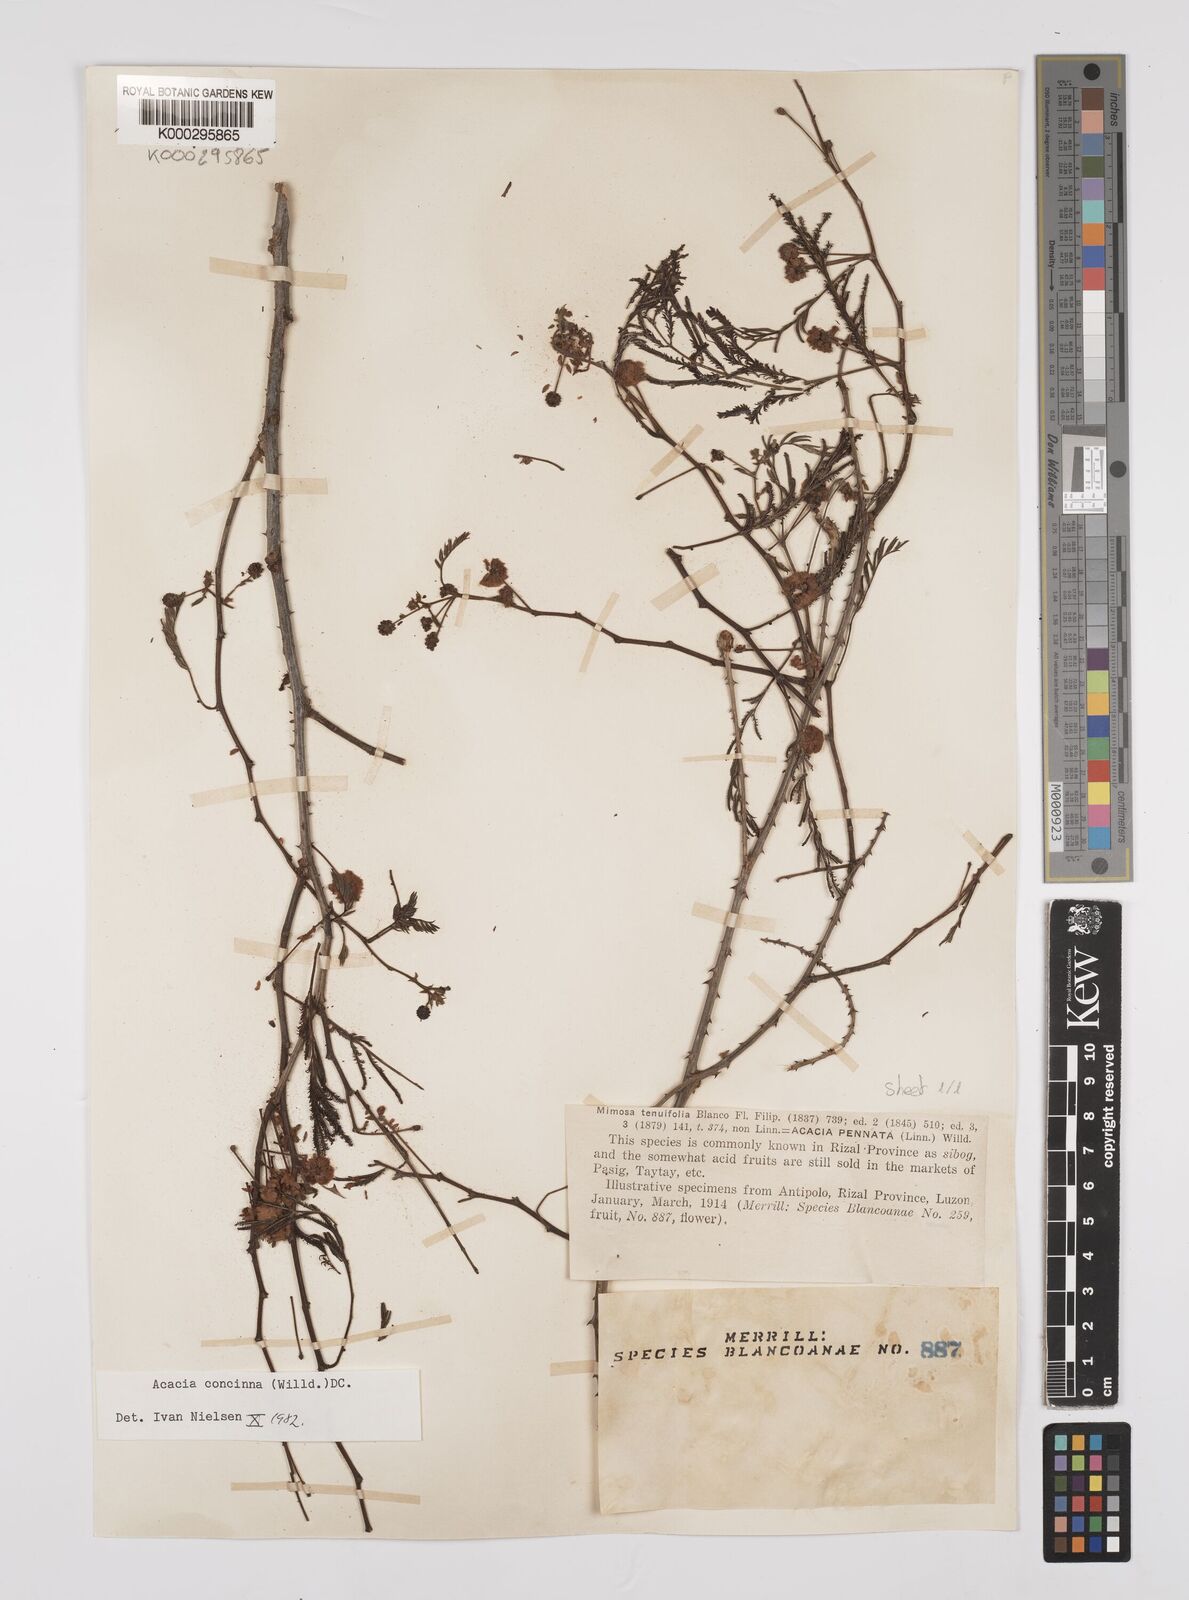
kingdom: Plantae
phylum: Tracheophyta
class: Magnoliopsida
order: Fabales
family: Fabaceae
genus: Senegalia
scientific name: Senegalia rugata
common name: Soap-pod
